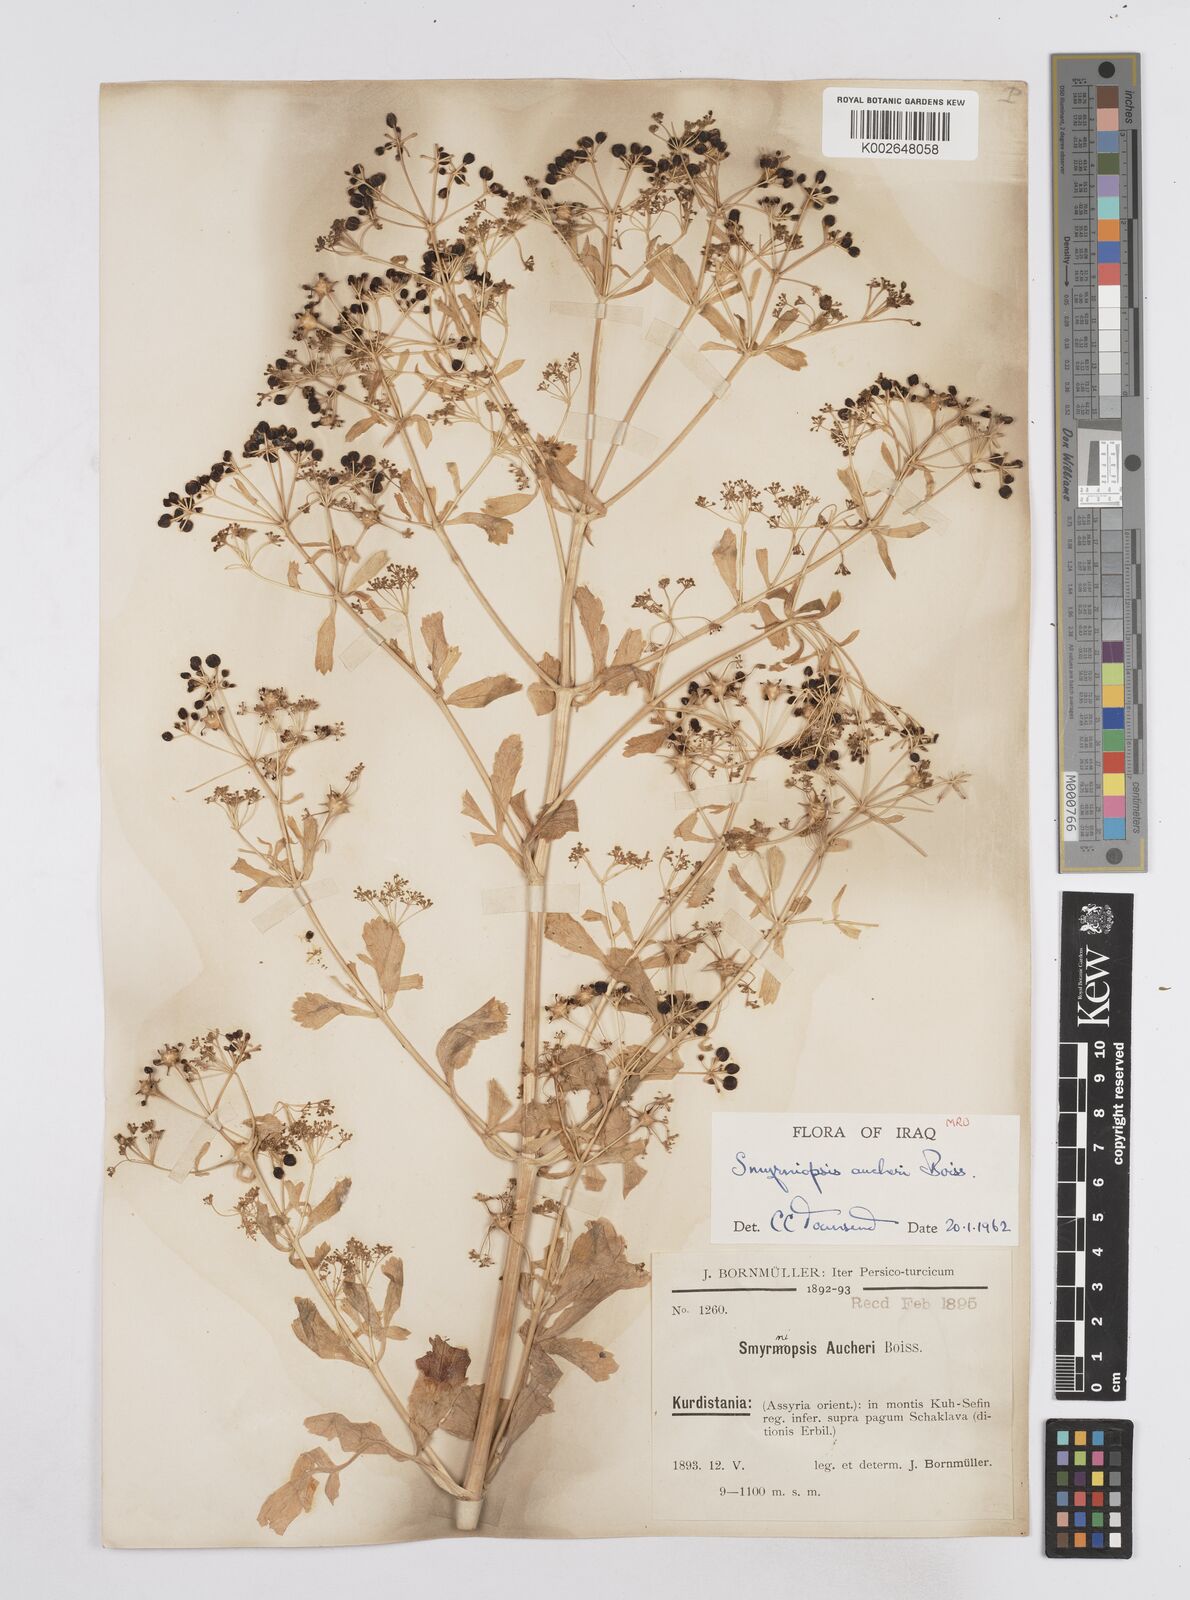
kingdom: Plantae
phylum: Tracheophyta
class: Magnoliopsida
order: Apiales
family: Apiaceae
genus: Smyrniopsis
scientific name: Smyrniopsis aucheri
